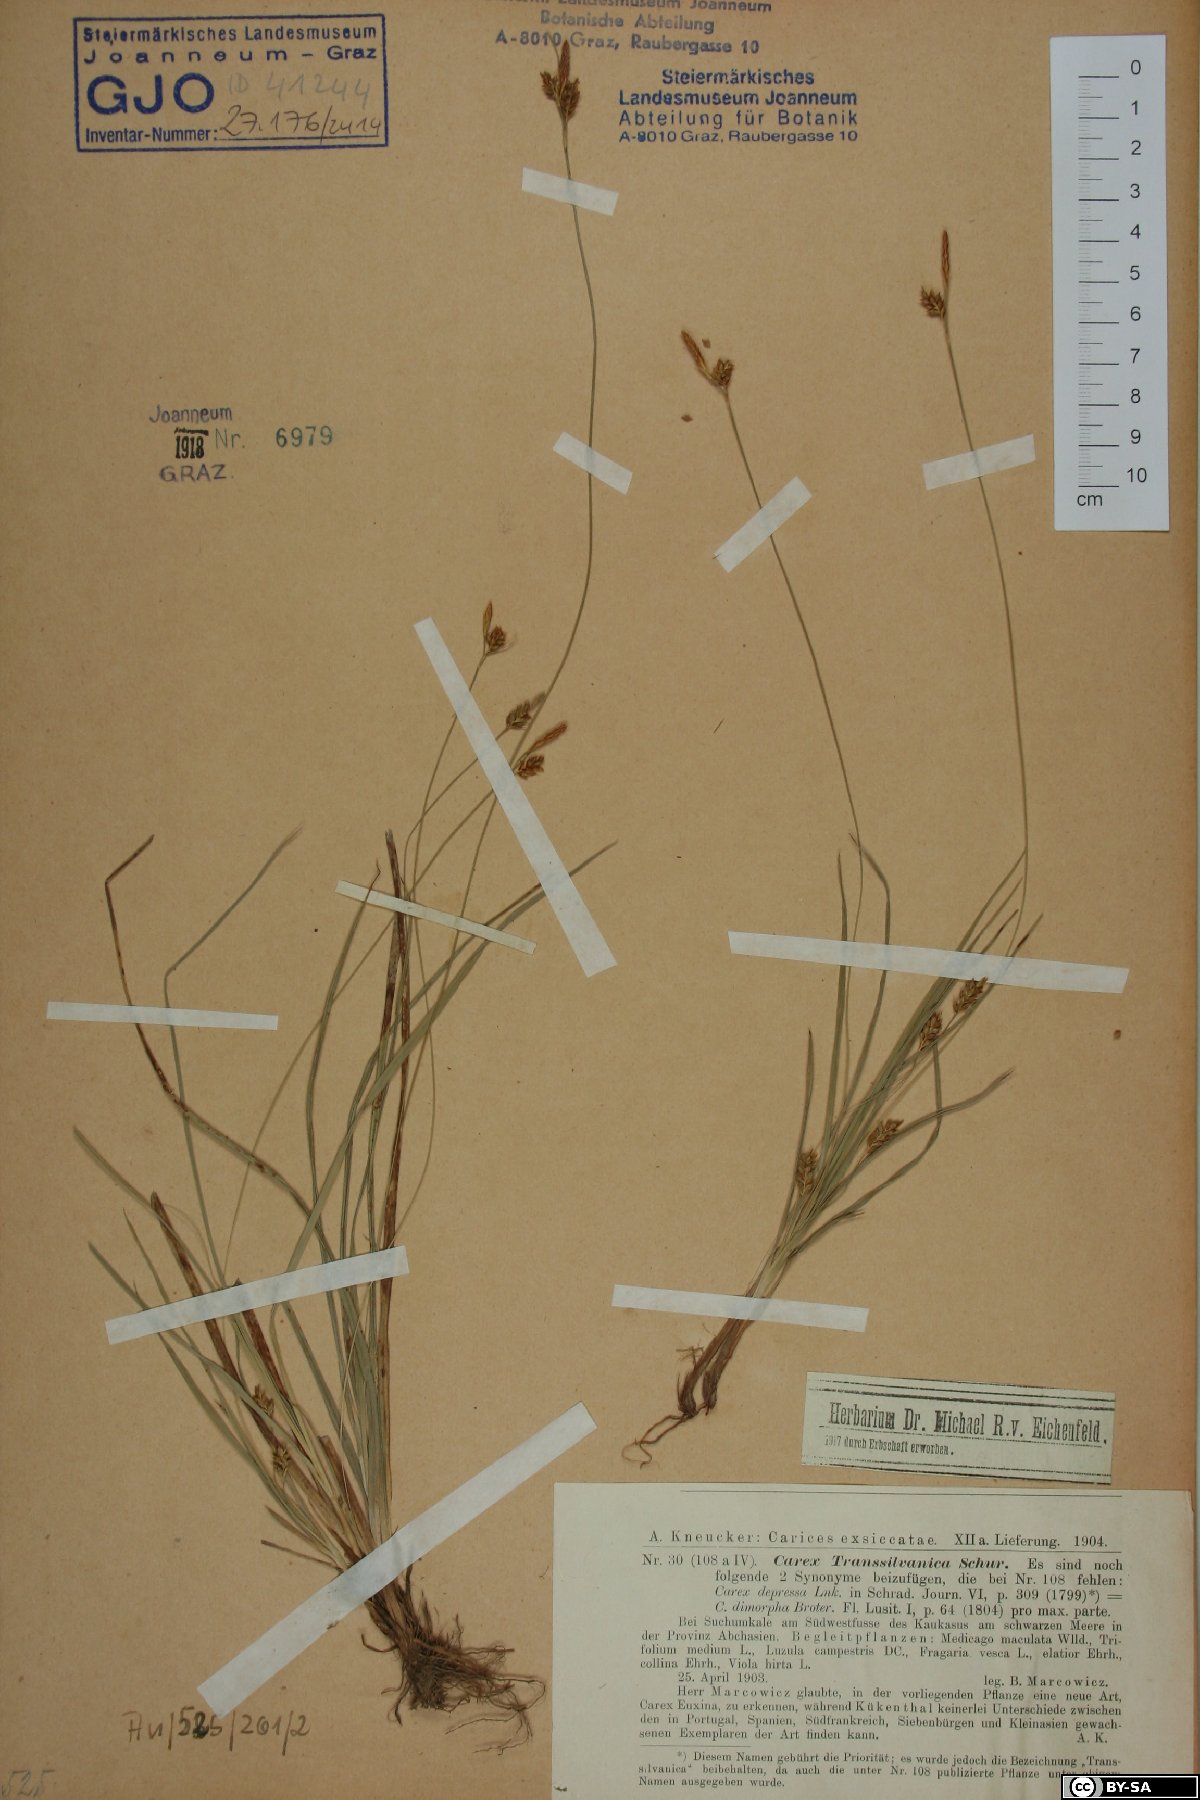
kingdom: Plantae
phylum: Tracheophyta
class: Liliopsida
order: Poales
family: Cyperaceae
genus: Carex
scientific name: Carex depressa
